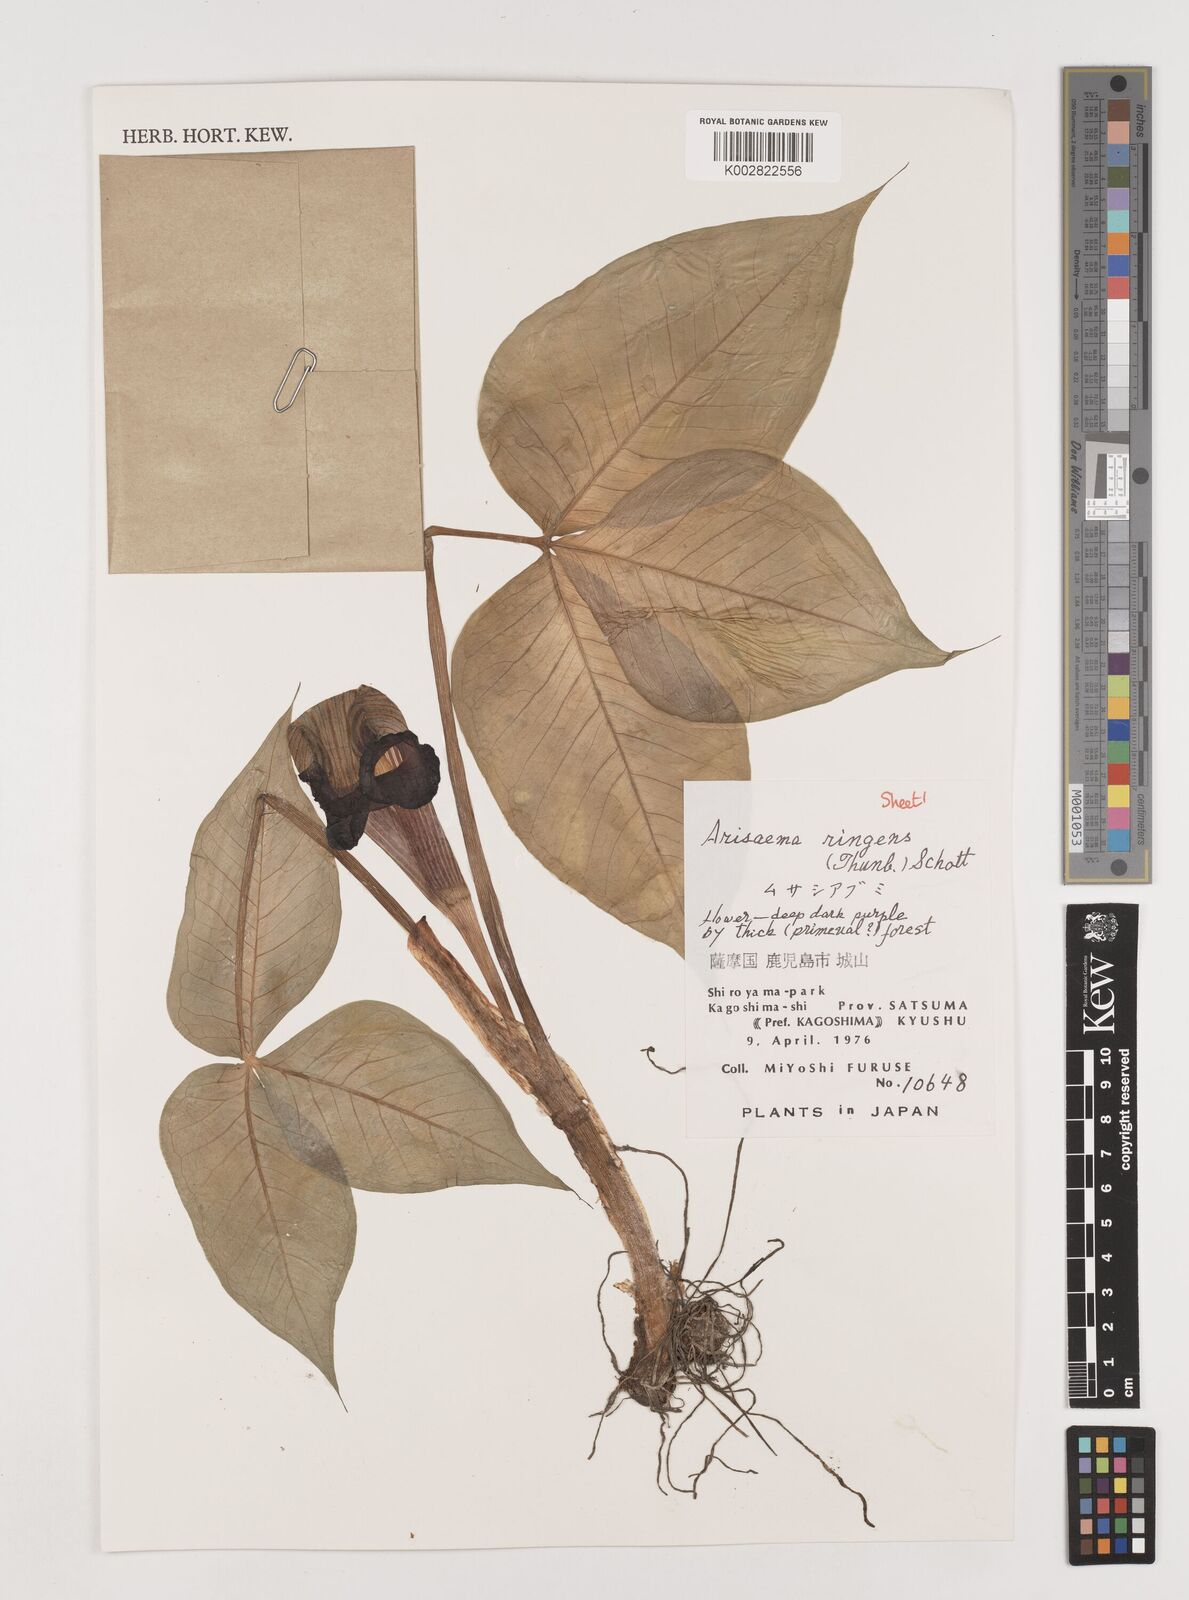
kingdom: Plantae
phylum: Tracheophyta
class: Liliopsida
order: Alismatales
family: Araceae
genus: Arisaema
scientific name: Arisaema ringens
